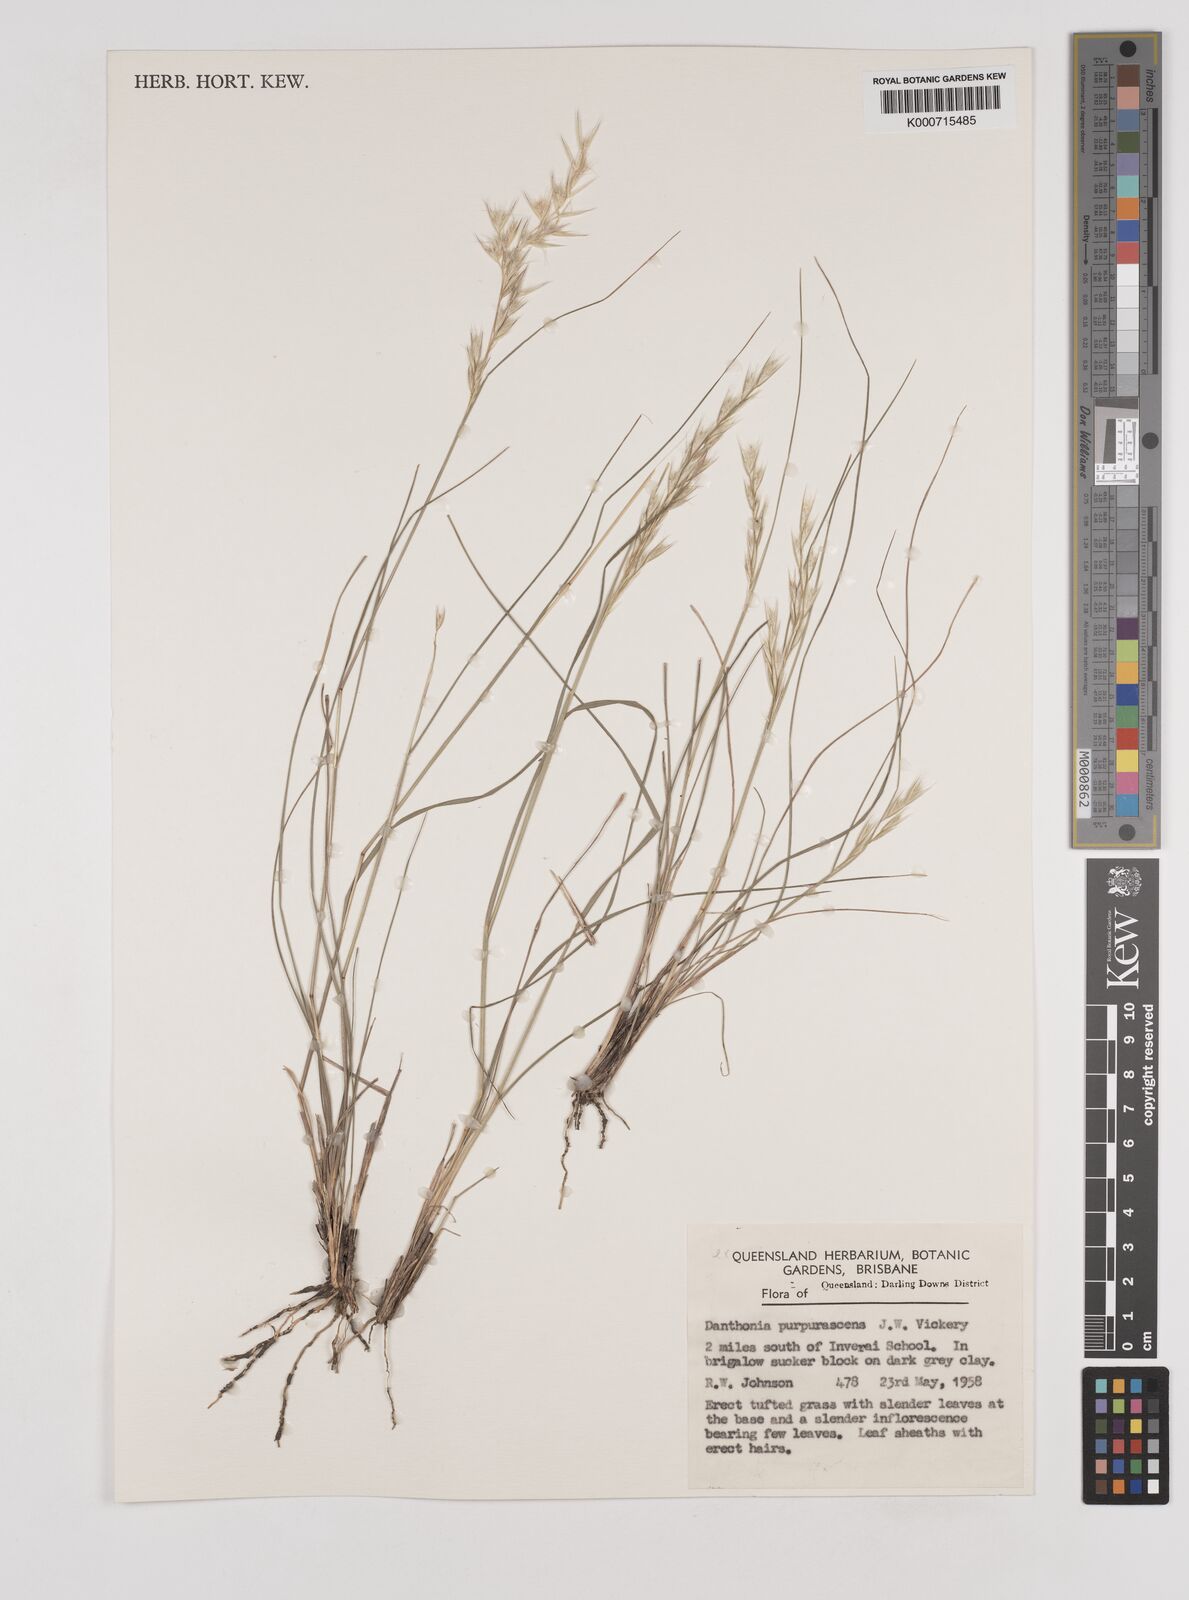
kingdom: Plantae
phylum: Tracheophyta
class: Liliopsida
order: Poales
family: Poaceae
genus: Rytidosperma
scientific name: Rytidosperma tenuius
